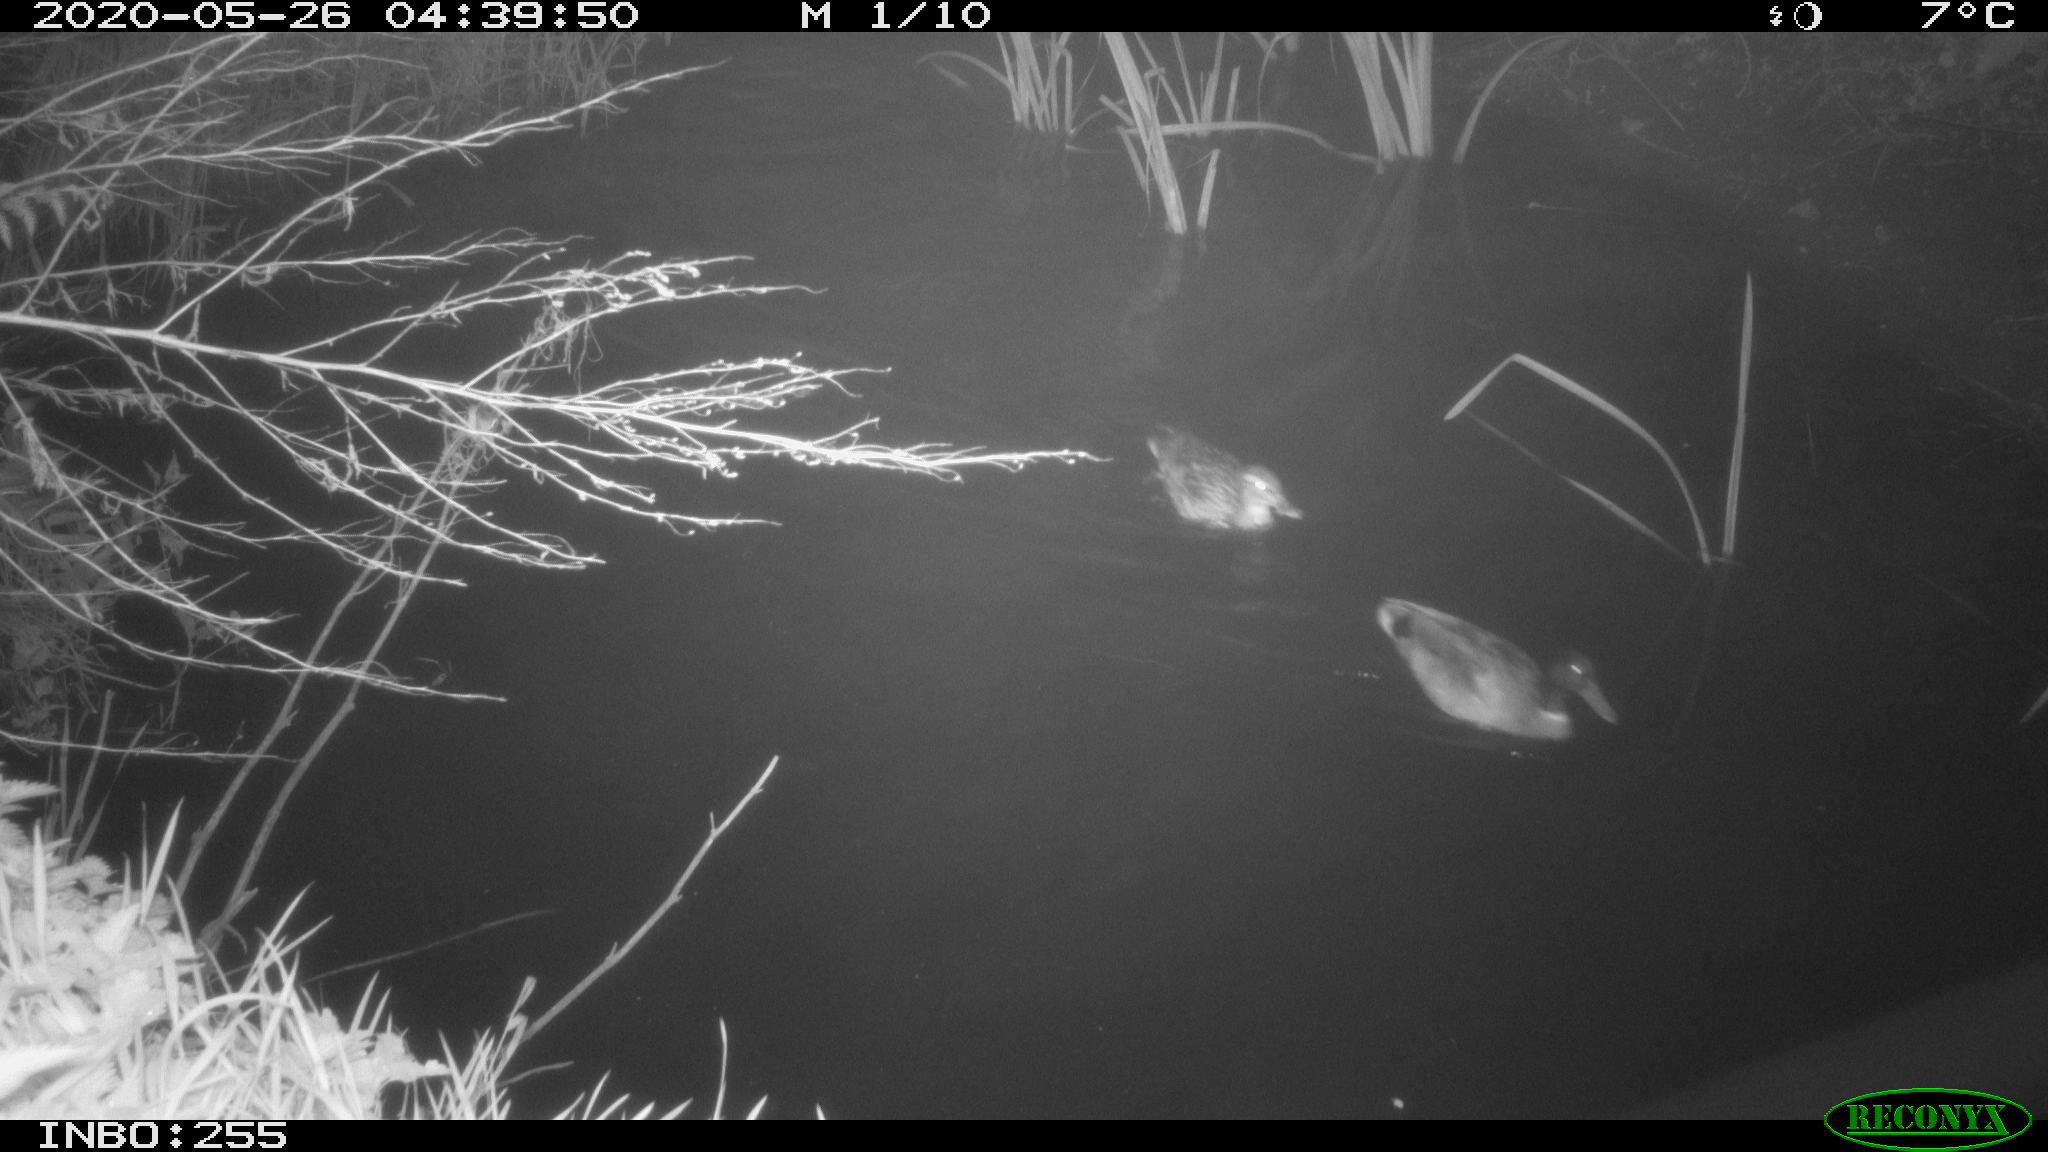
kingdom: Animalia
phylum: Chordata
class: Aves
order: Anseriformes
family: Anatidae
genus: Anas
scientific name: Anas platyrhynchos
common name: Mallard
